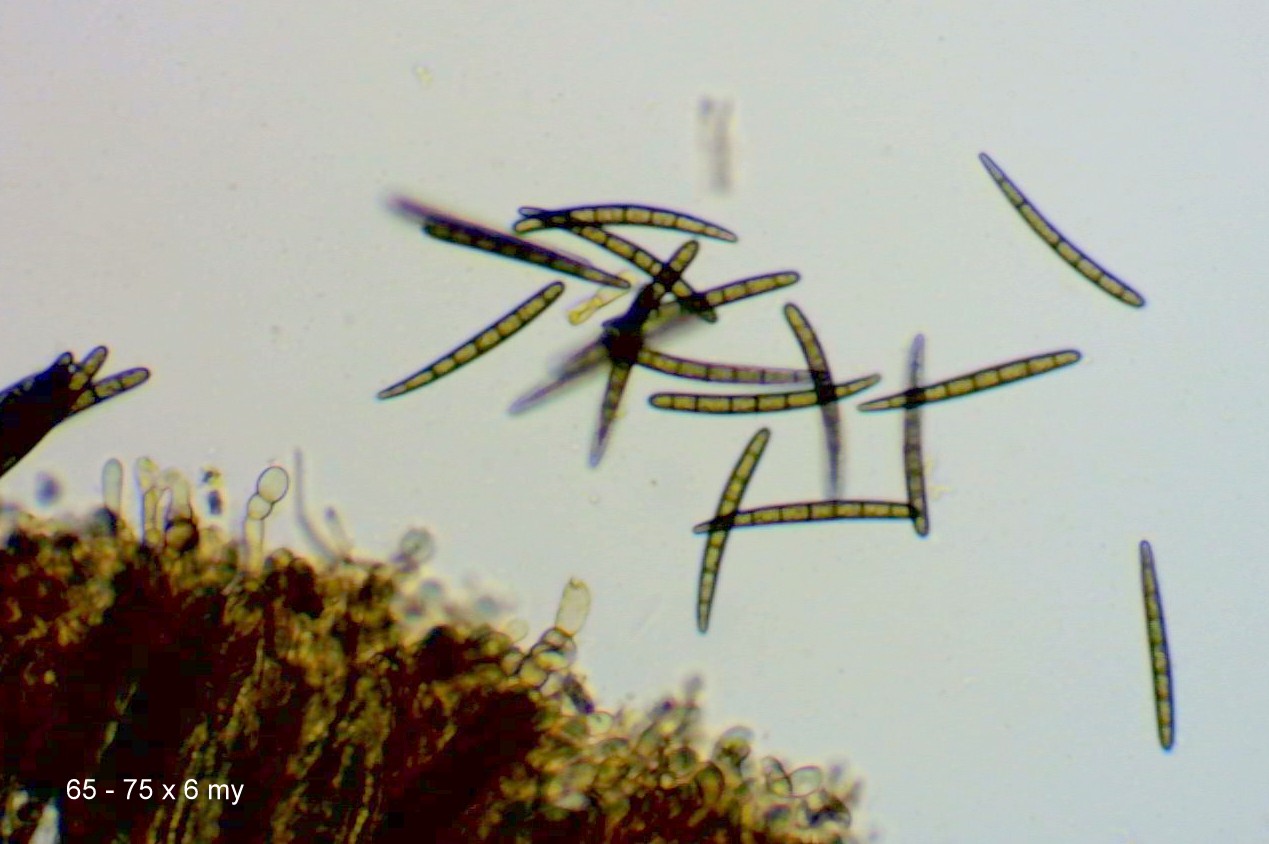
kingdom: Fungi
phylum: Ascomycota
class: Geoglossomycetes
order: Geoglossales
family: Geoglossaceae
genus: Geoglossum
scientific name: Geoglossum cookeianum
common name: bred jordtunge
